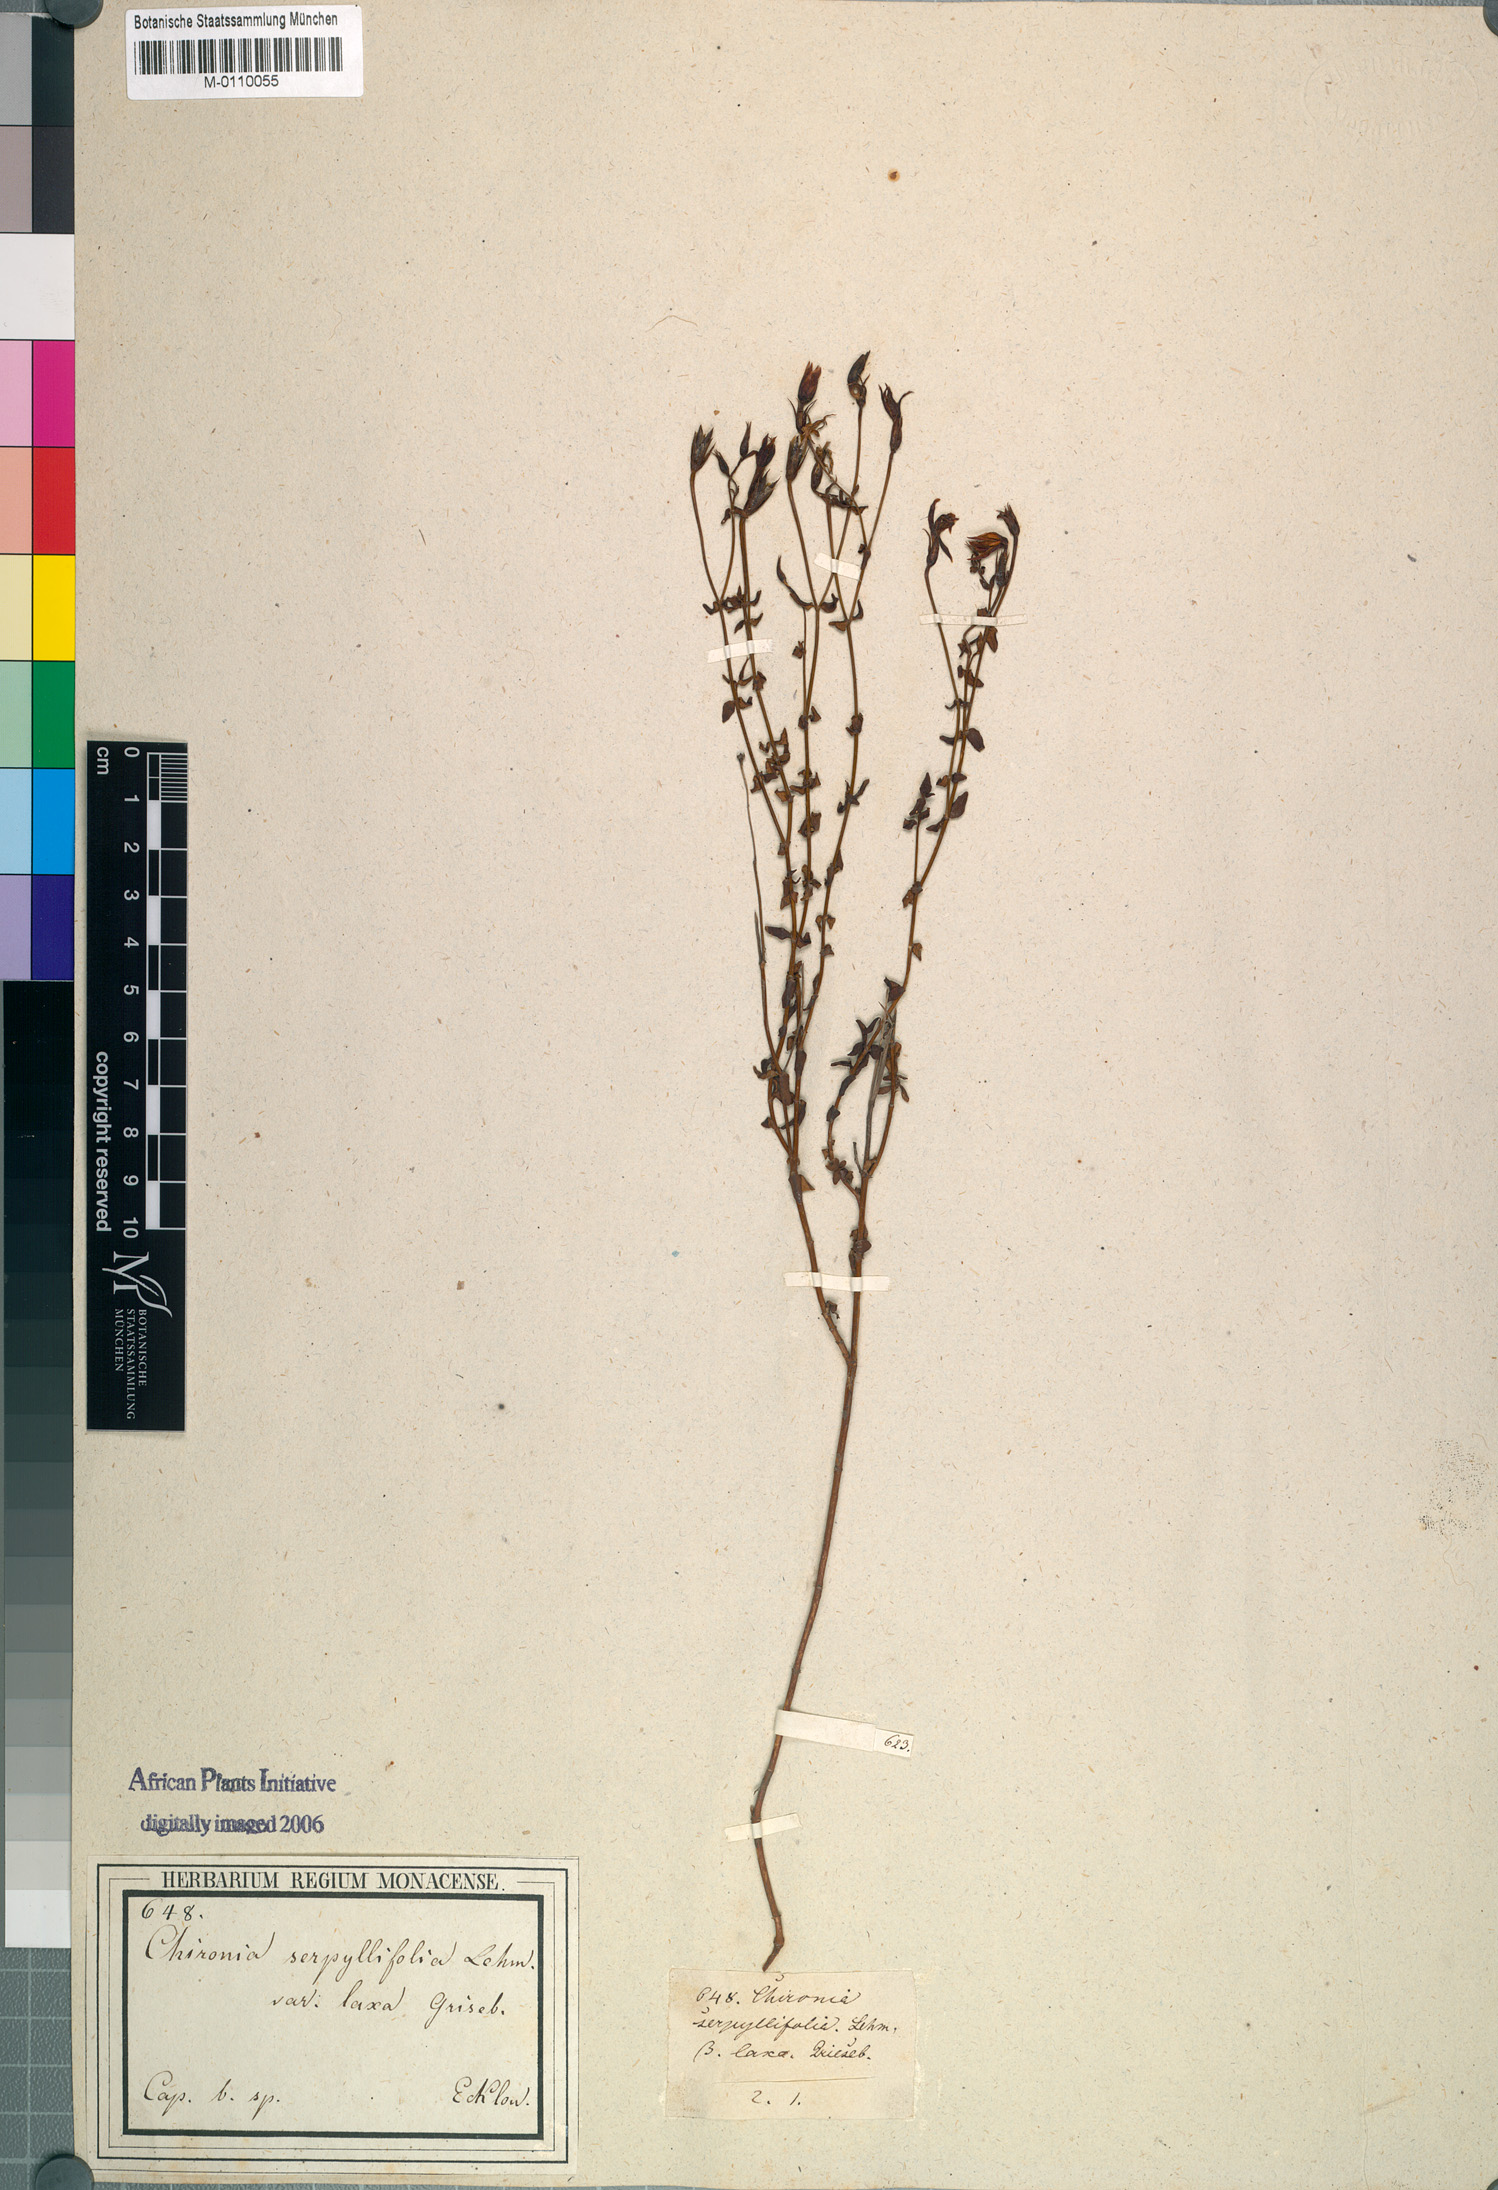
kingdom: Plantae
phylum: Tracheophyta
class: Magnoliopsida
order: Gentianales
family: Gentianaceae
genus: Chironia
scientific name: Chironia serpyllifolia
